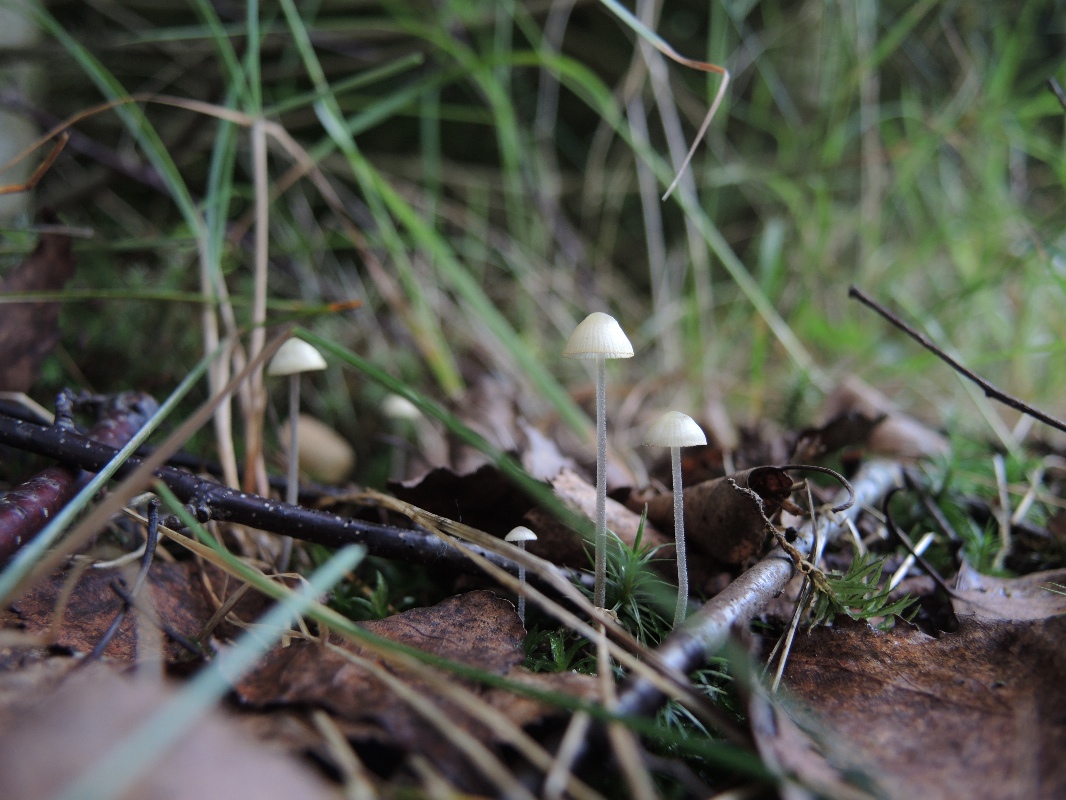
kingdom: Fungi
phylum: Basidiomycota
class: Agaricomycetes
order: Agaricales
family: Mycenaceae
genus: Mycena
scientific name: Mycena amicta
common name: iris-huesvamp
